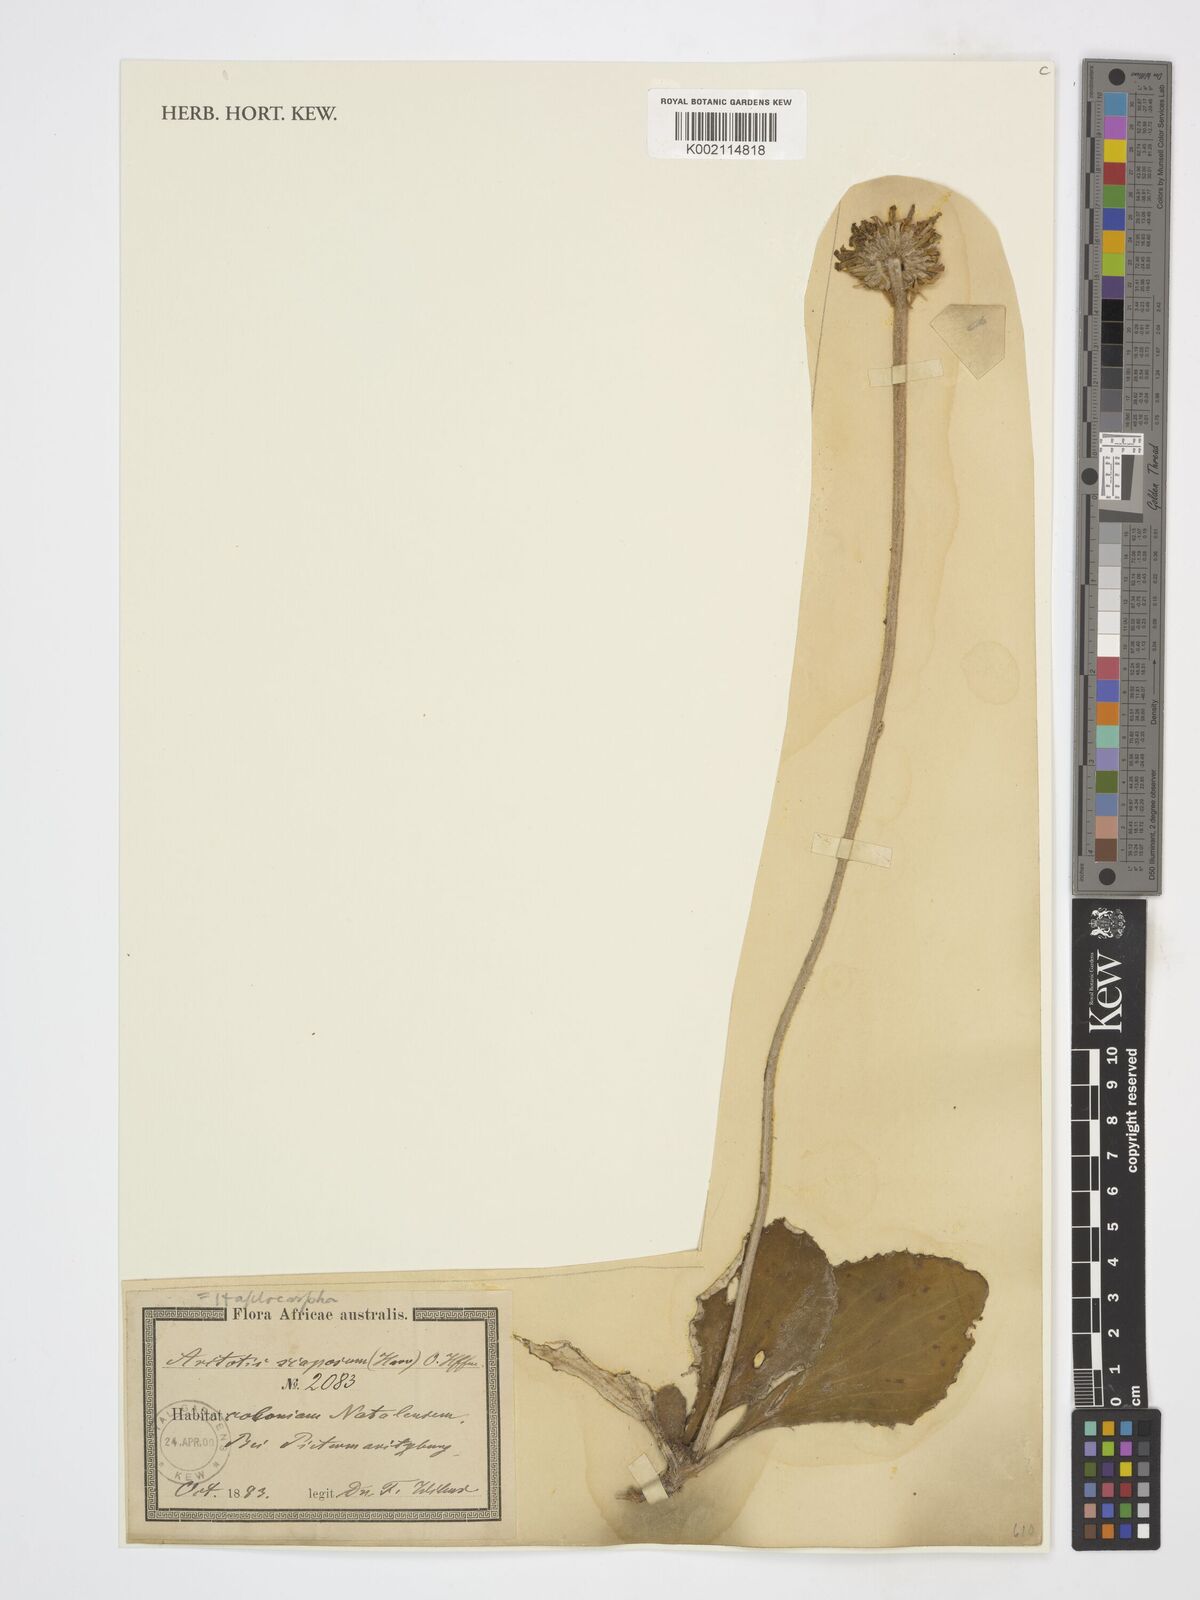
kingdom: Plantae
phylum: Tracheophyta
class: Magnoliopsida
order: Asterales
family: Asteraceae
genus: Arctotis
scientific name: Arctotis
